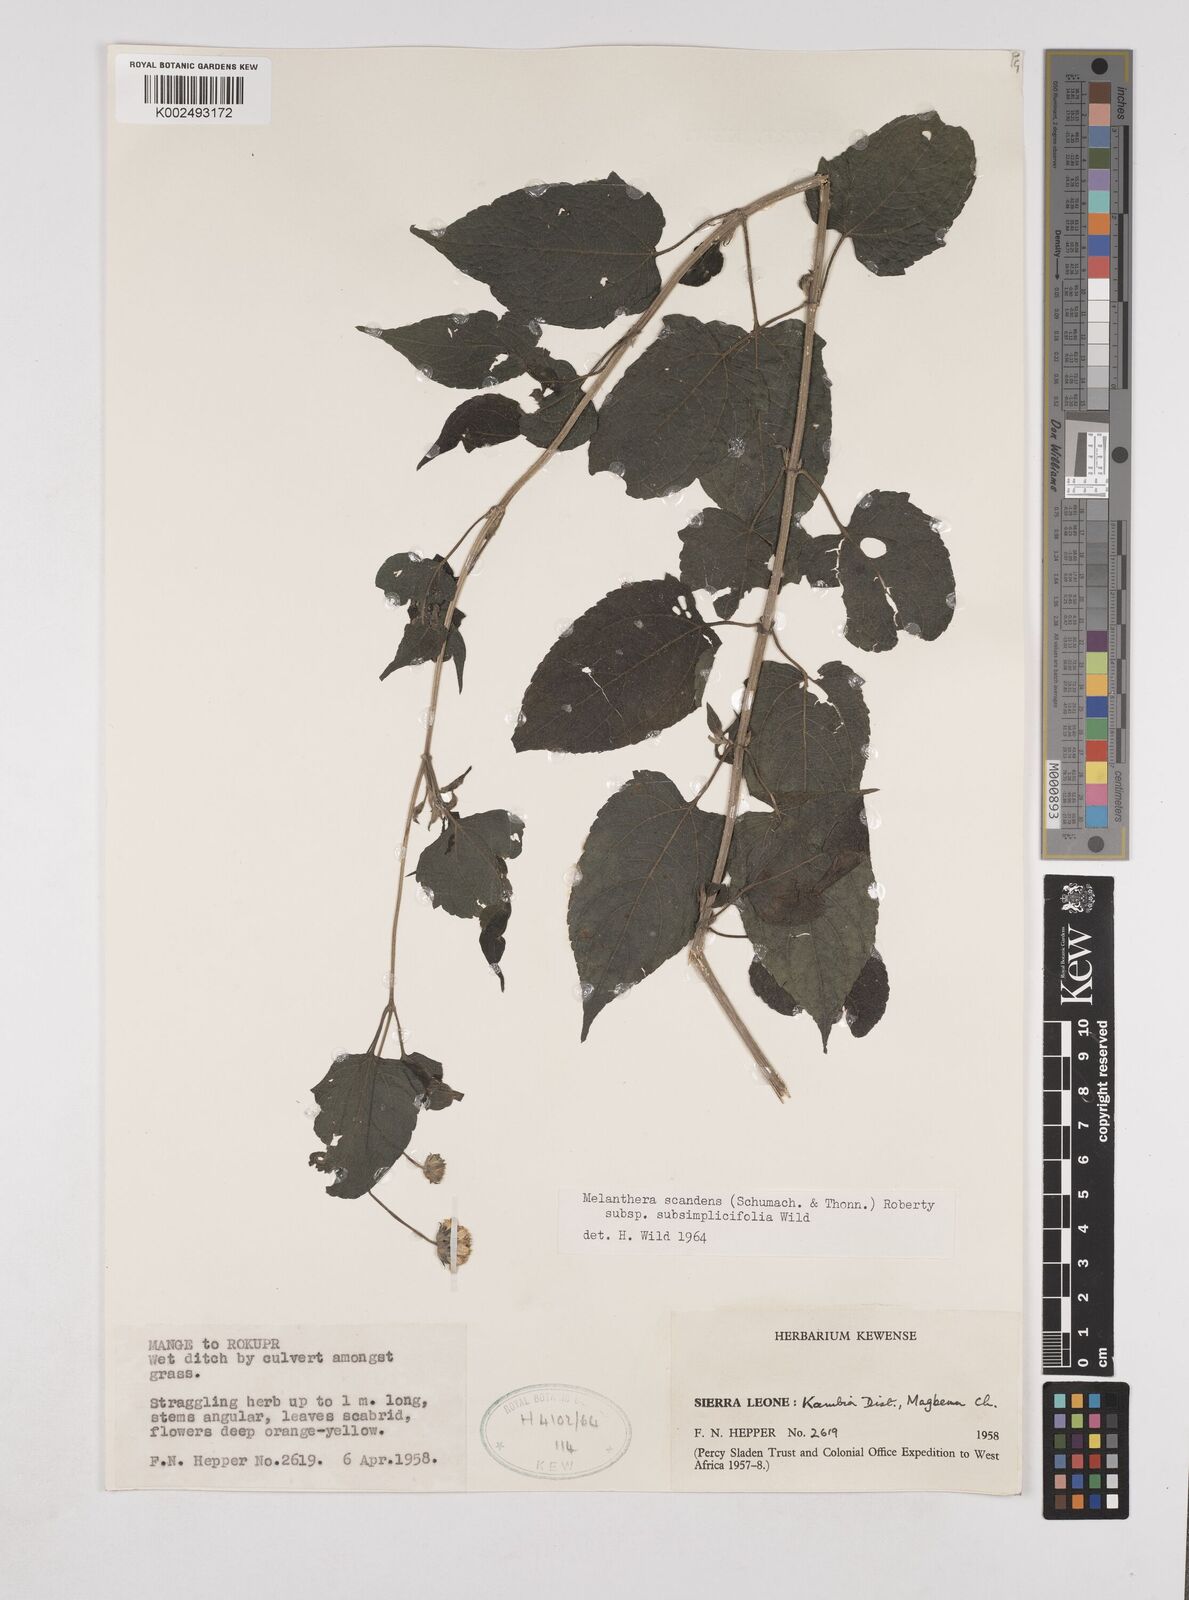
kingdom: Plantae
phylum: Tracheophyta
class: Magnoliopsida
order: Asterales
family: Asteraceae
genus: Lipotriche
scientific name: Lipotriche scandens
